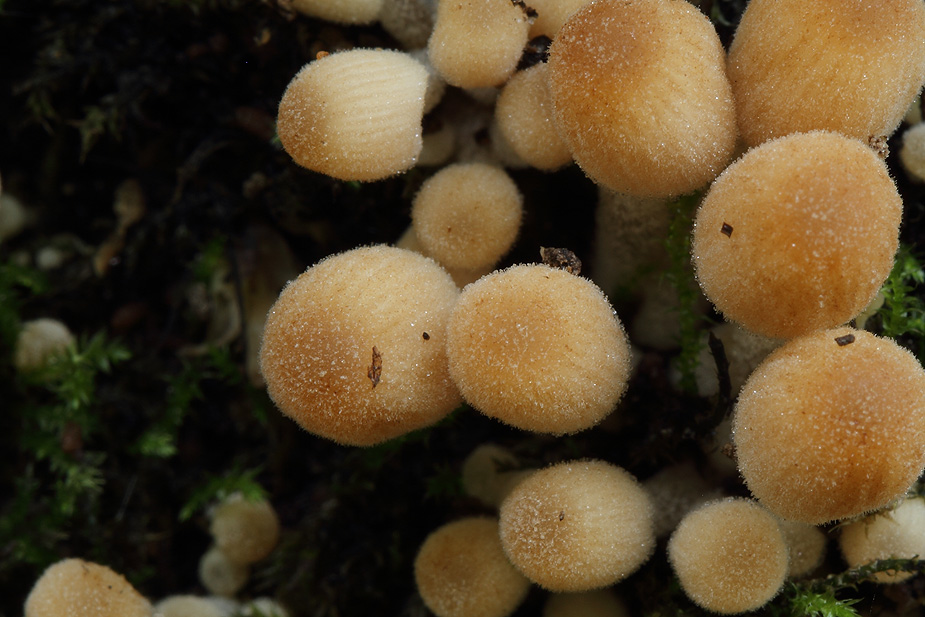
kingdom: Fungi
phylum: Basidiomycota
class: Agaricomycetes
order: Agaricales
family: Psathyrellaceae
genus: Coprinellus
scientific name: Coprinellus disseminatus
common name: bredsået blækhat
